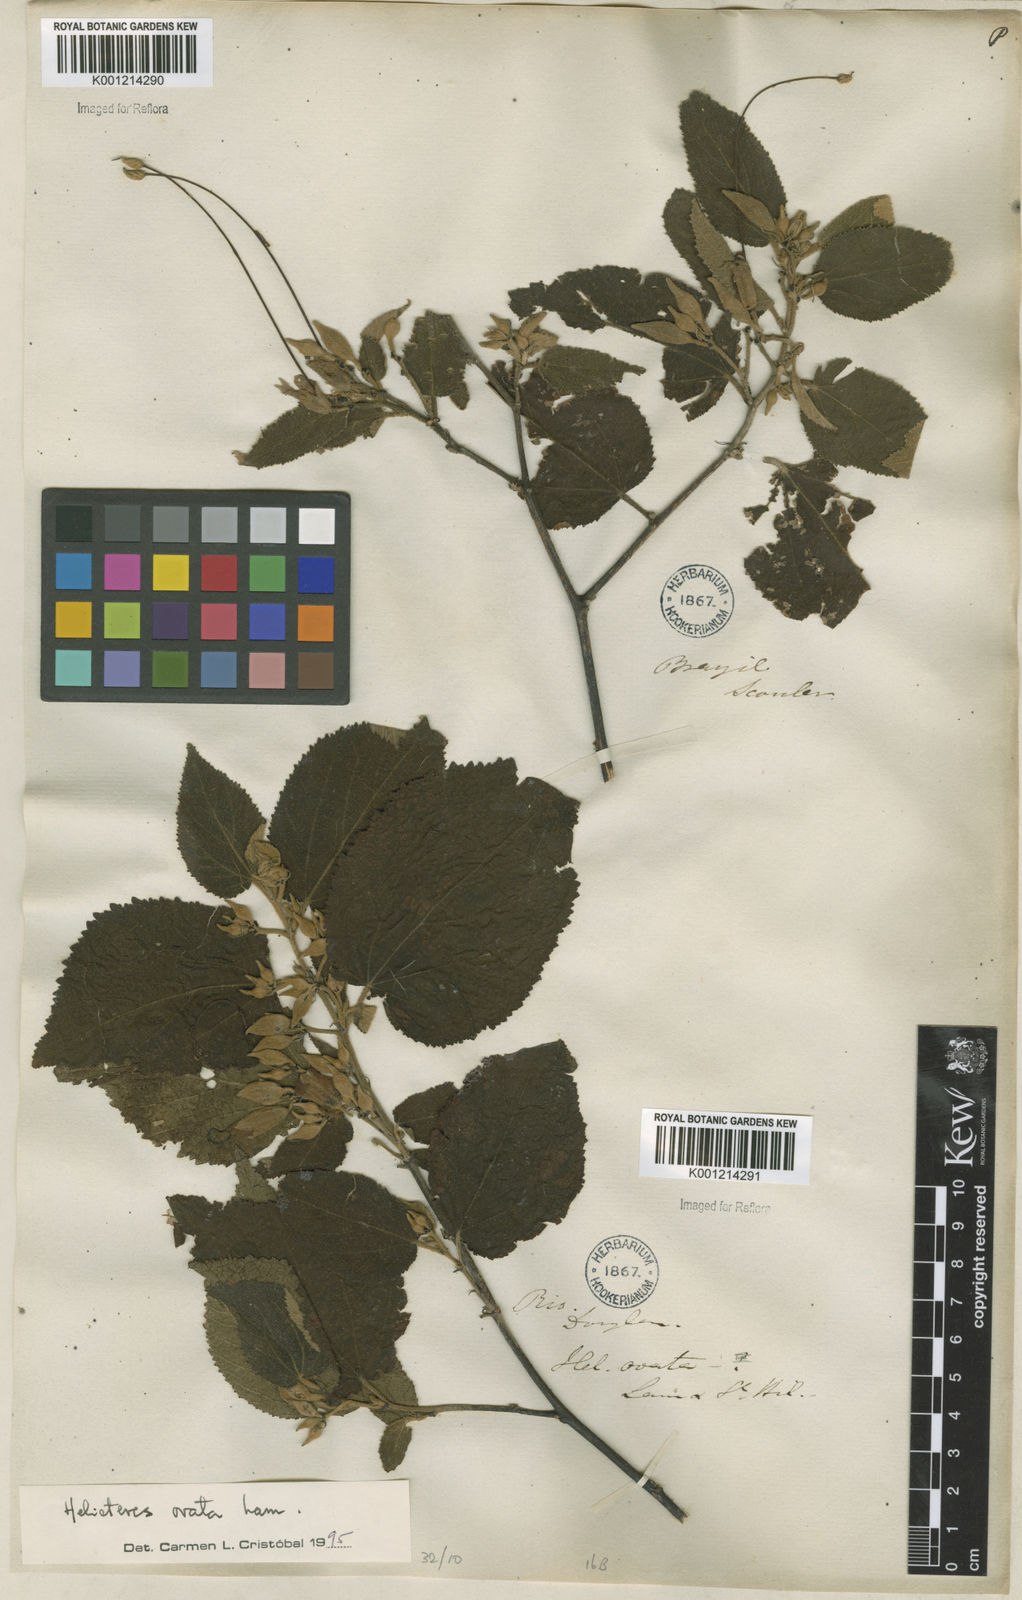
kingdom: Plantae
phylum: Tracheophyta
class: Magnoliopsida
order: Malvales
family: Malvaceae
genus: Helicteres
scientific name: Helicteres ovata
